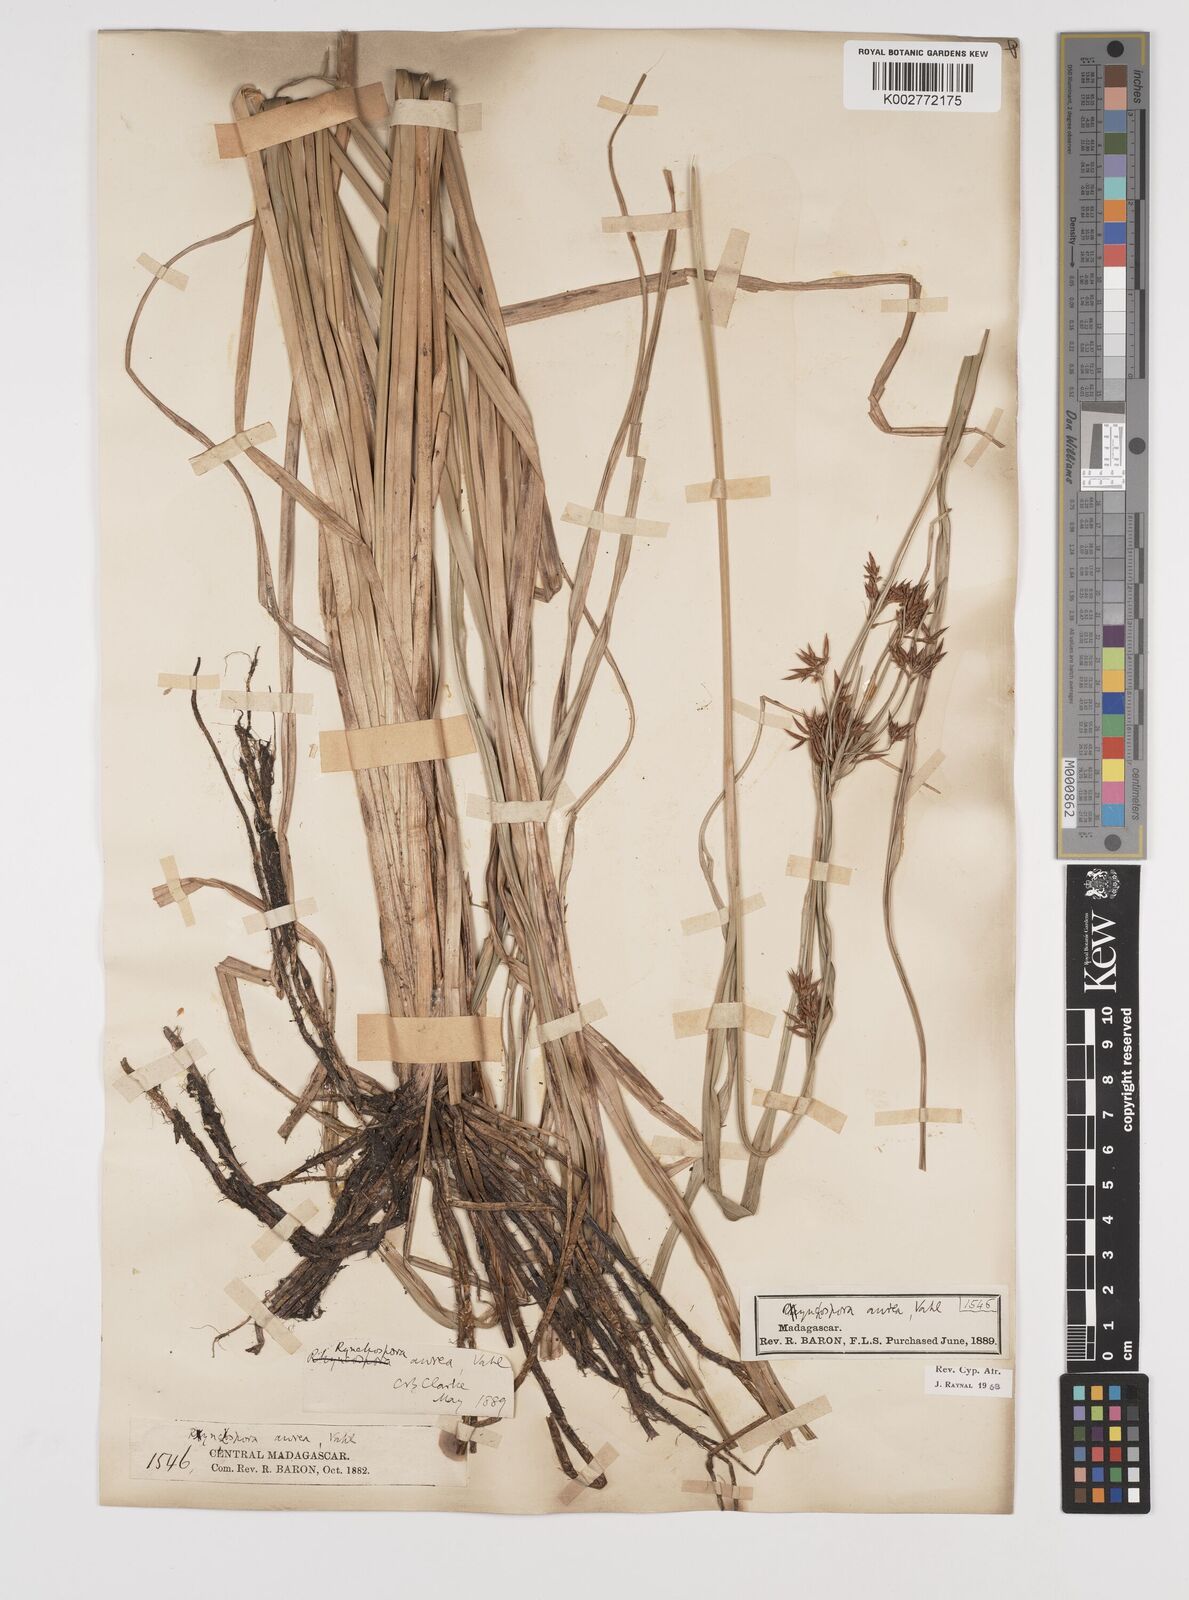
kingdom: Plantae
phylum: Tracheophyta
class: Liliopsida
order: Poales
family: Cyperaceae
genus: Rhynchospora
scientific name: Rhynchospora corymbosa
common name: Golden beak sedge
